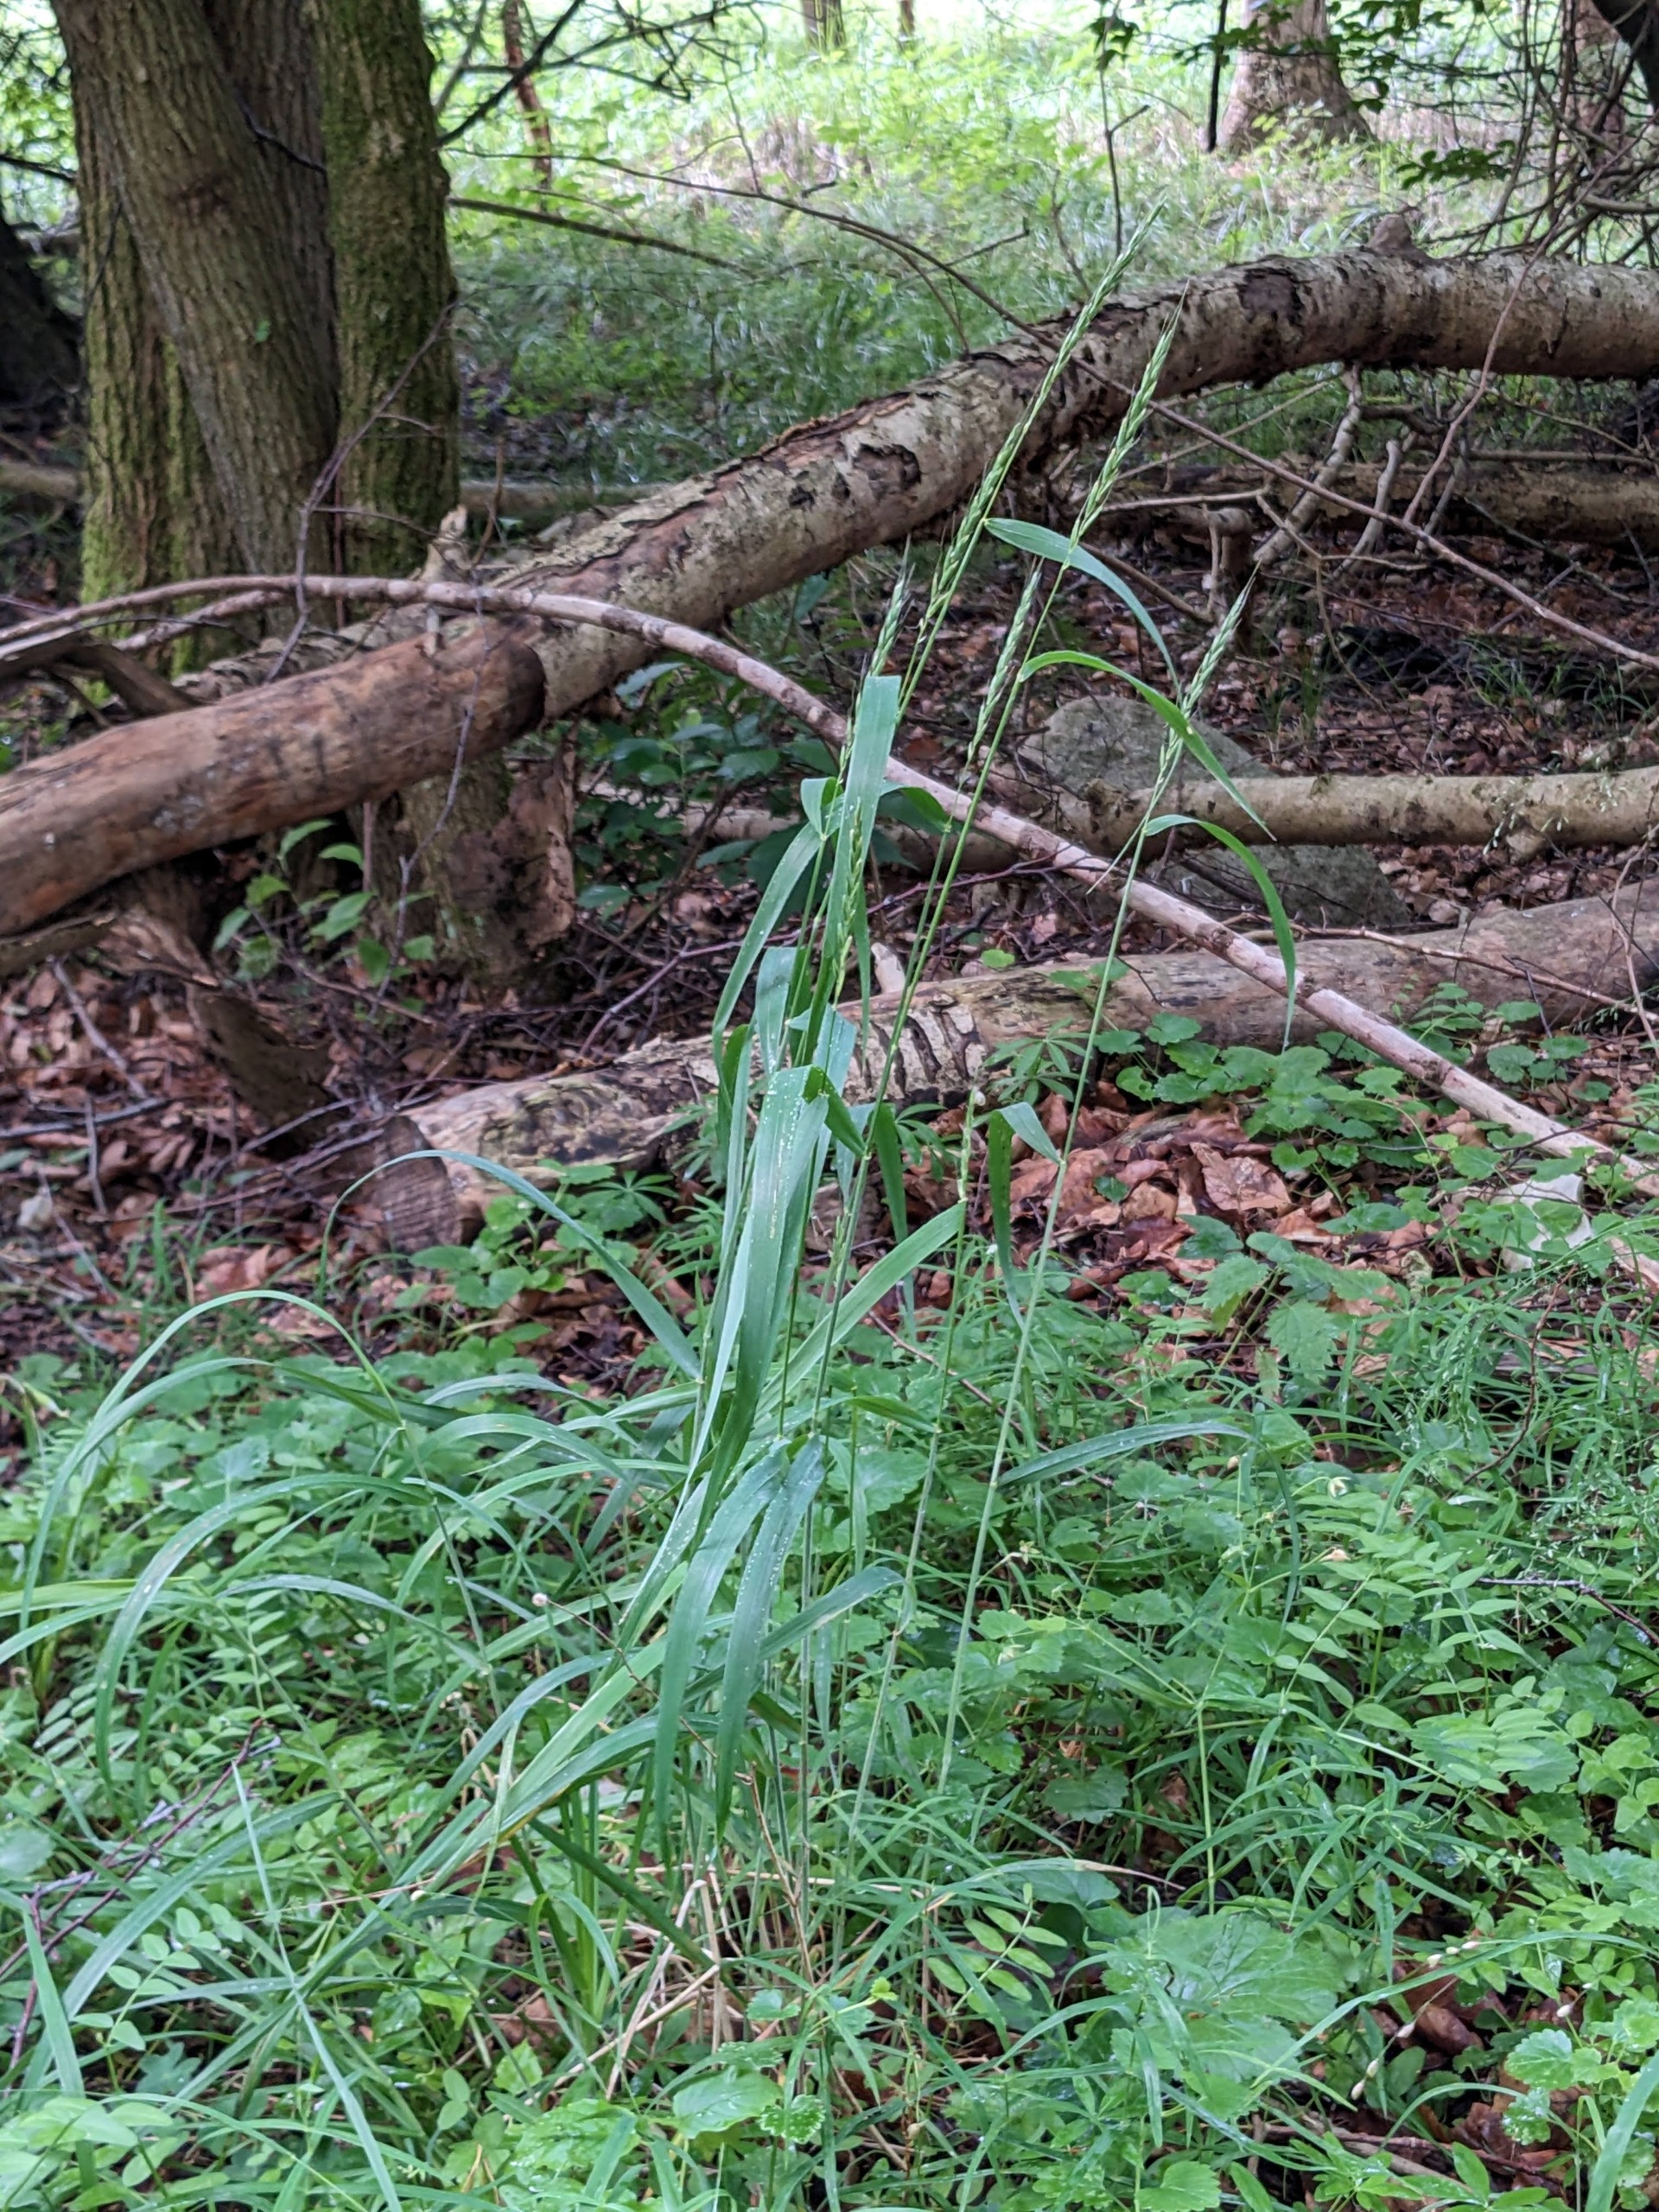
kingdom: Plantae
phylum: Tracheophyta
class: Liliopsida
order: Poales
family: Poaceae
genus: Elymus
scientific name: Elymus caninus
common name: Hundekvik
